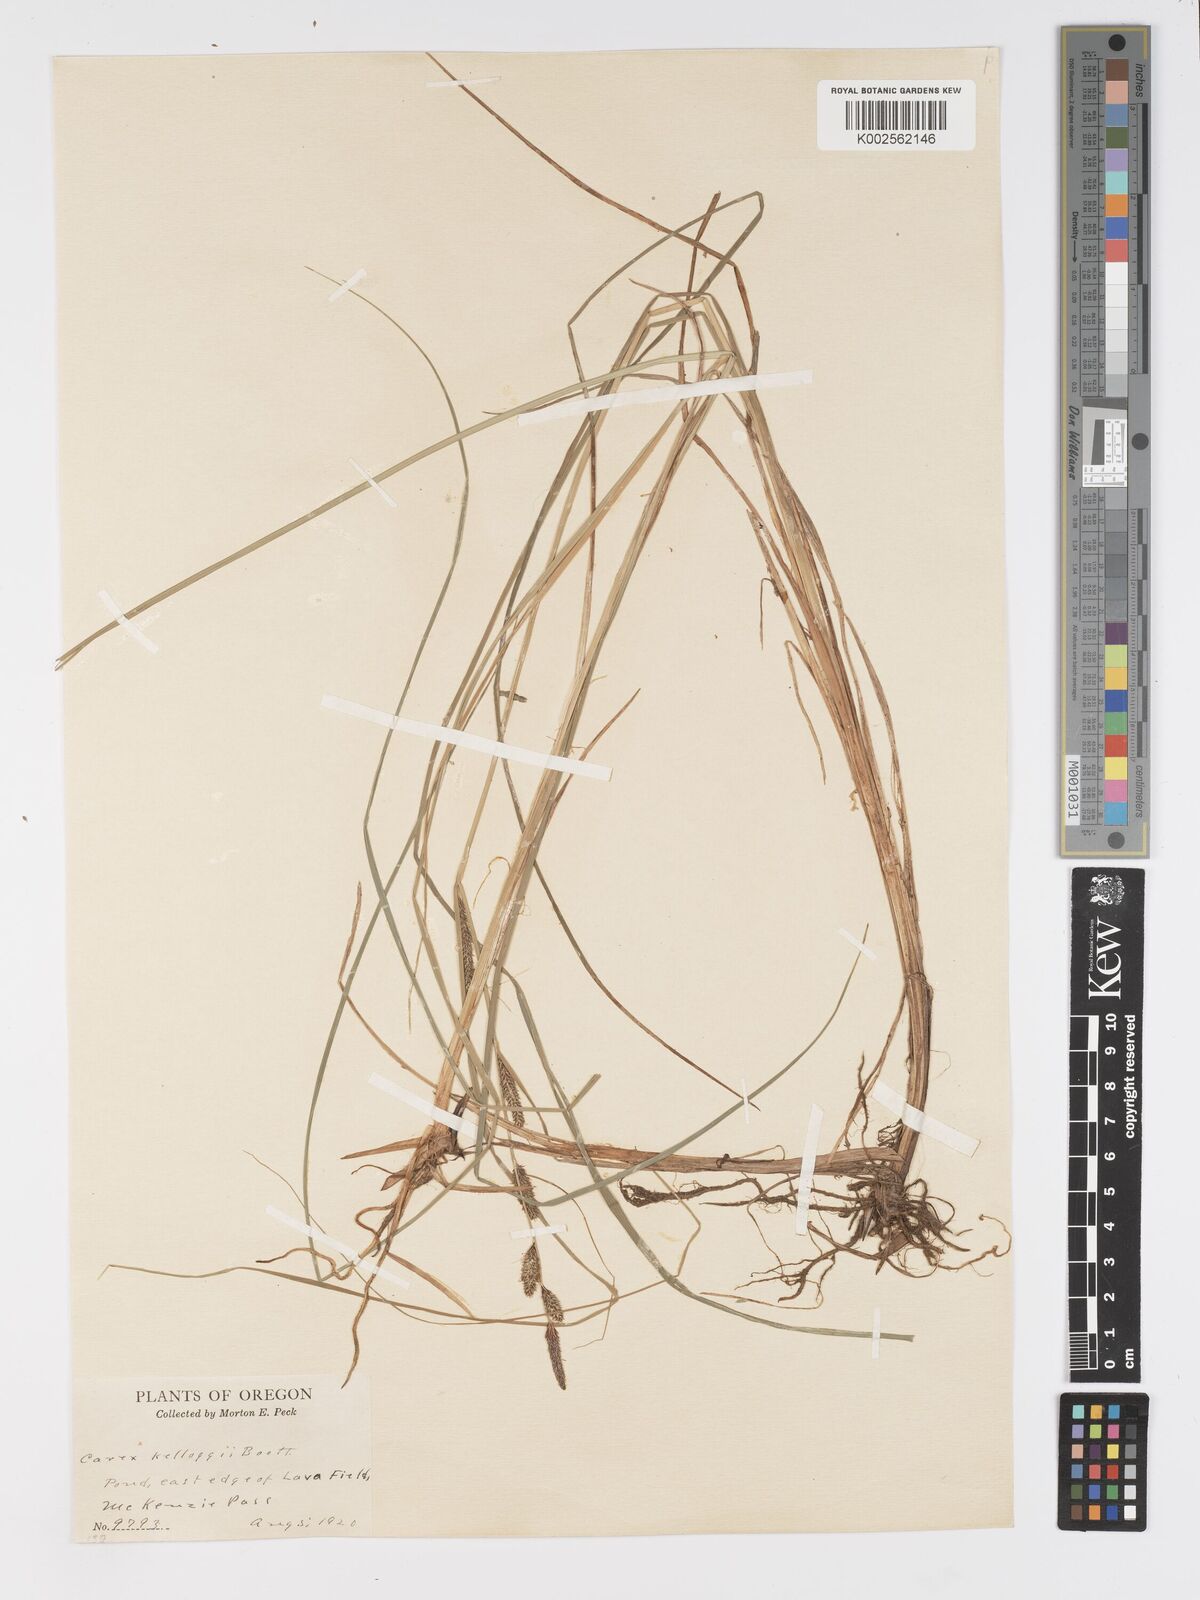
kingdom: Plantae
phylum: Tracheophyta
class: Liliopsida
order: Poales
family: Cyperaceae
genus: Carex
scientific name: Carex kelloggii
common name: Kellogg's sedge
